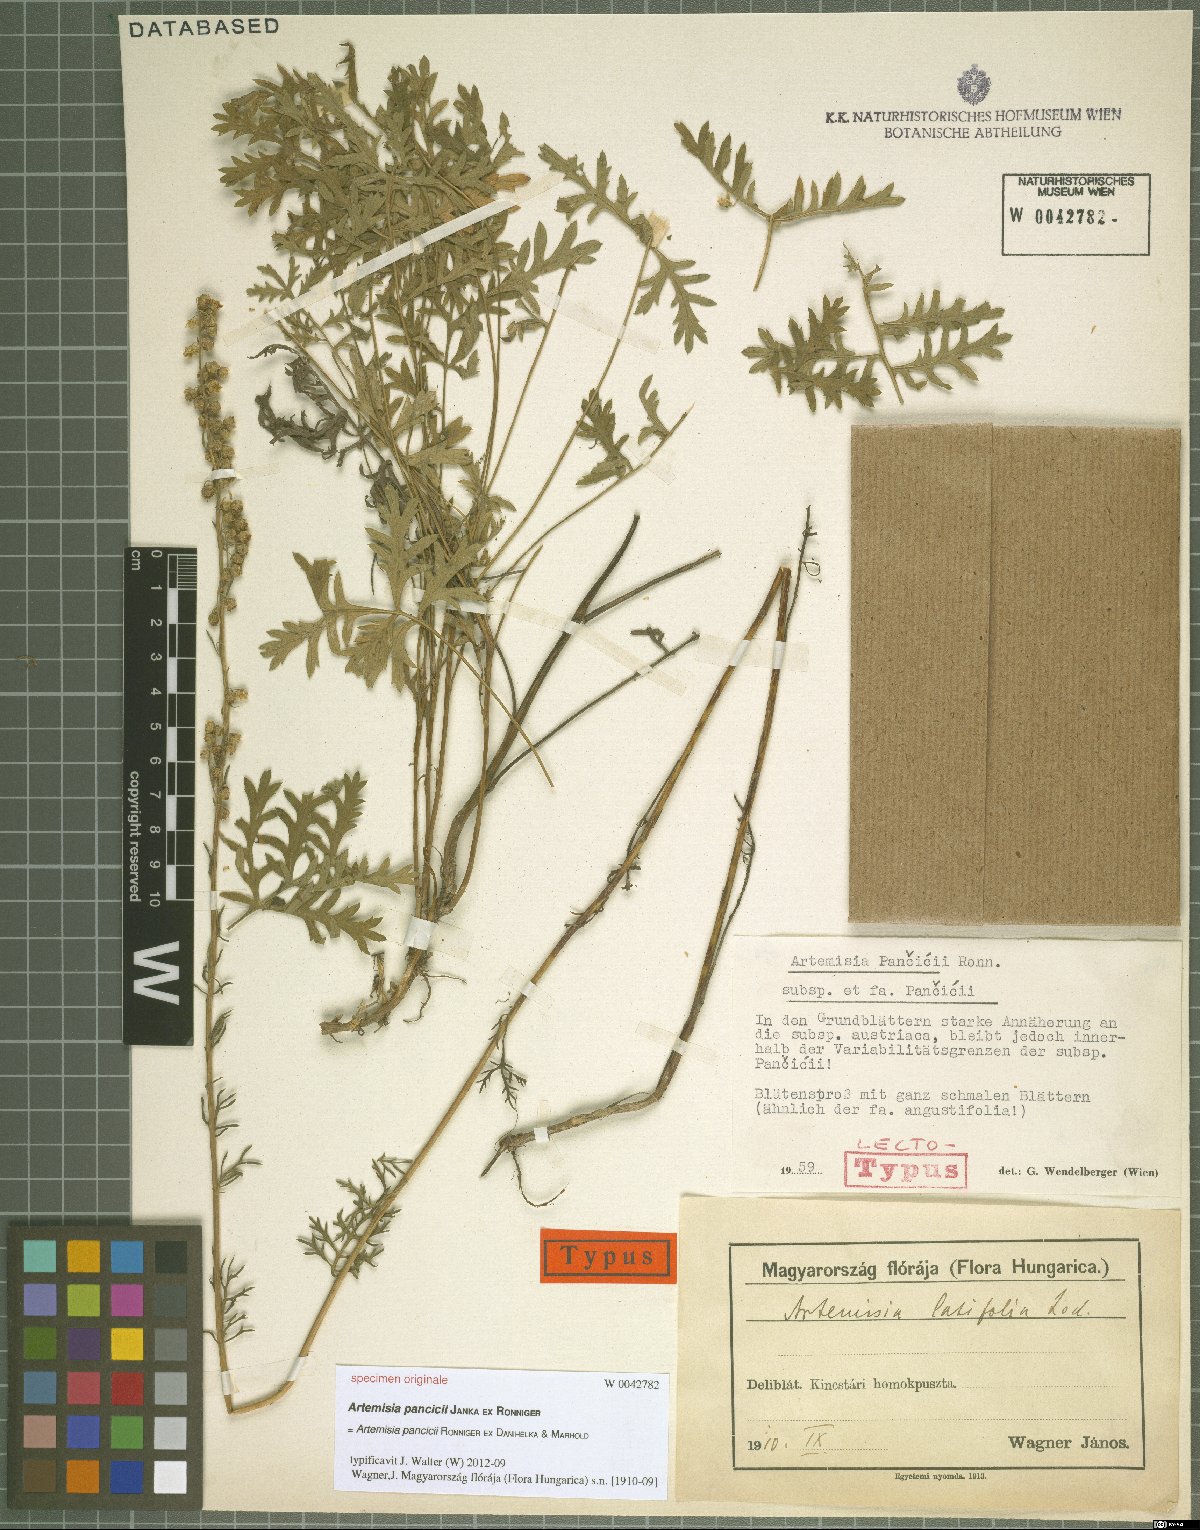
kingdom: Plantae
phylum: Tracheophyta
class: Magnoliopsida
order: Asterales
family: Asteraceae
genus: Artemisia
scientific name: Artemisia pancicii
